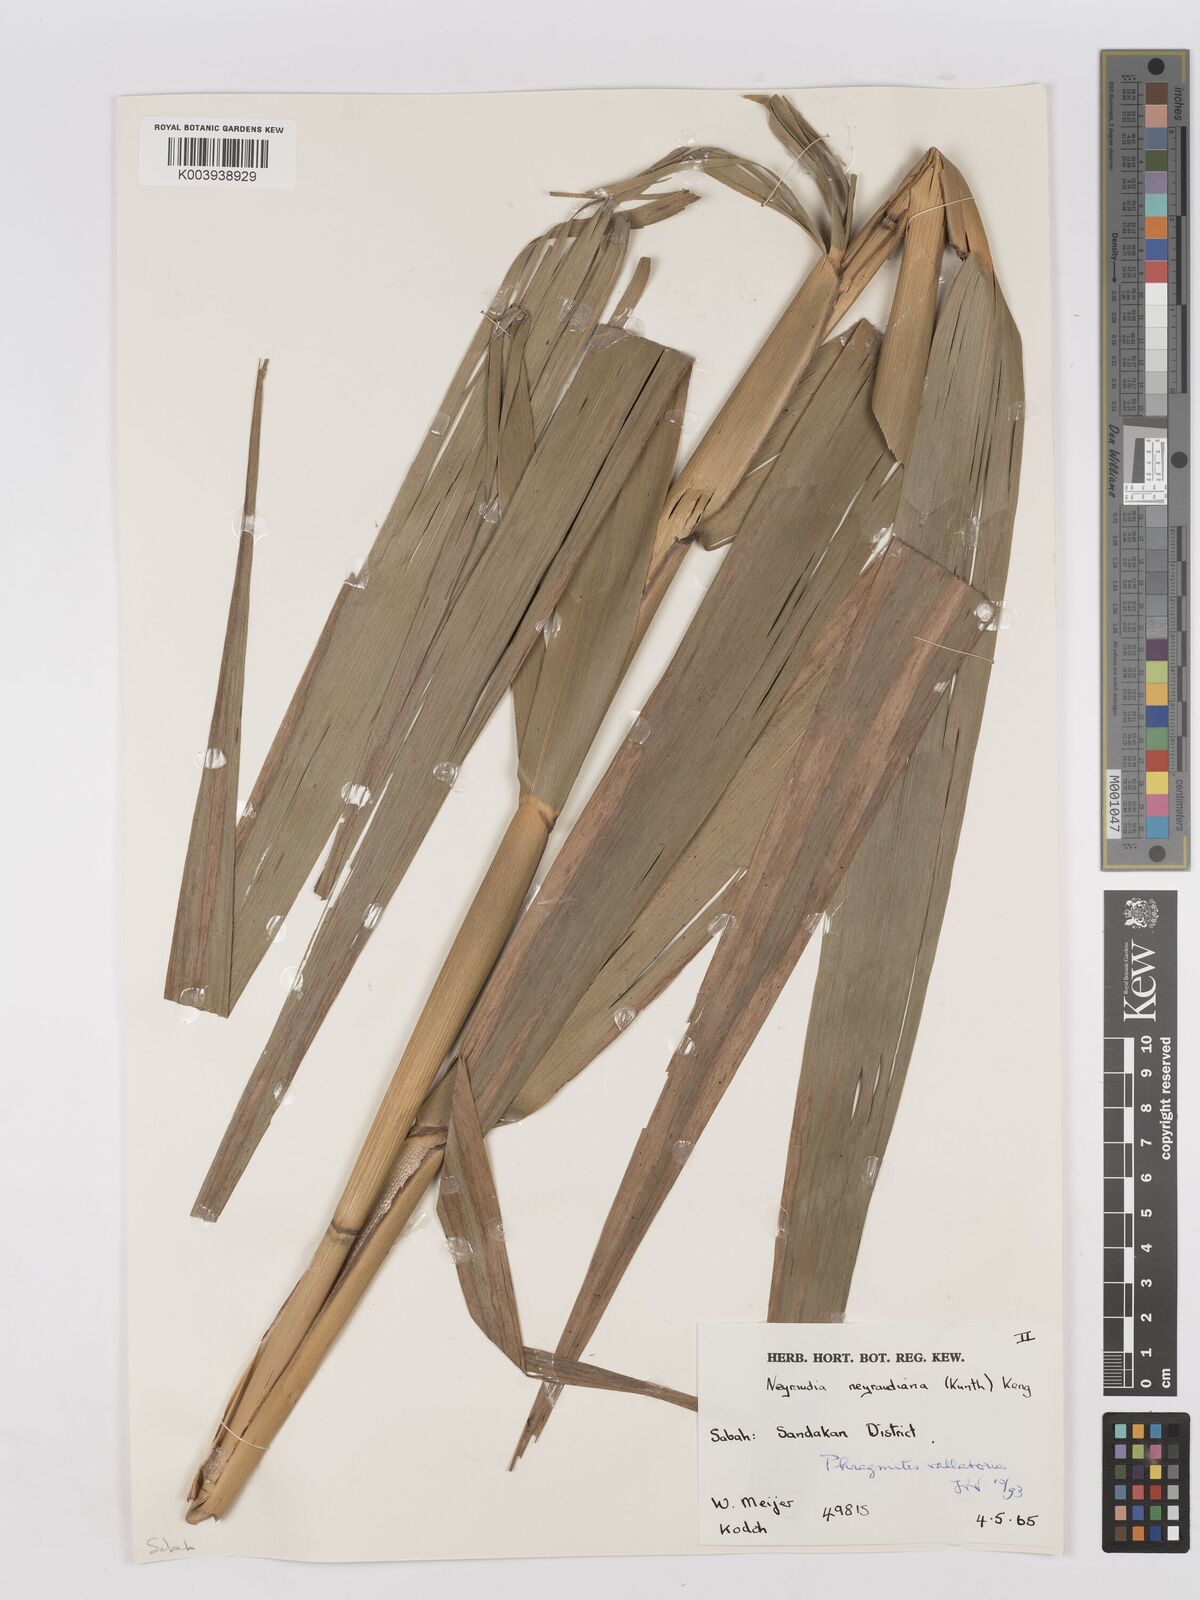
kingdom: Plantae
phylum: Tracheophyta
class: Liliopsida
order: Poales
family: Poaceae
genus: Phragmites
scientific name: Phragmites karka
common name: Tropical reed
